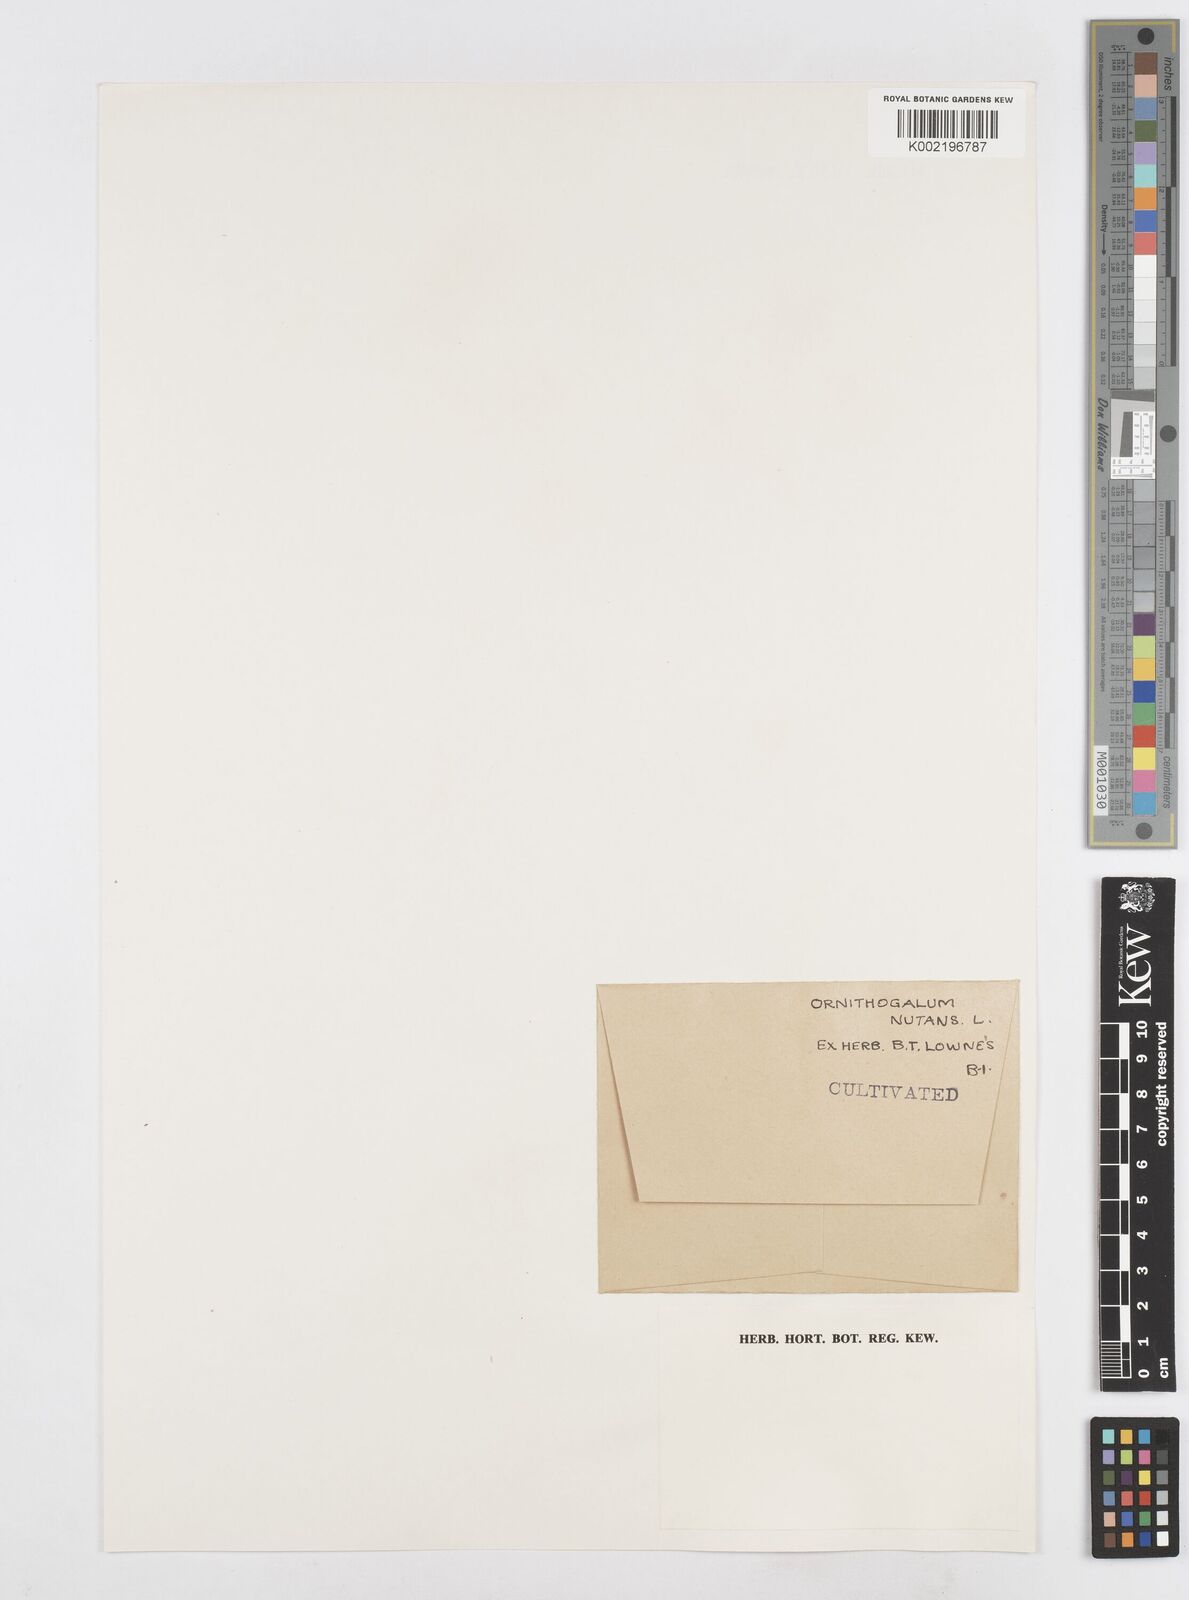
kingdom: Plantae
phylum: Tracheophyta
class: Liliopsida
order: Asparagales
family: Asparagaceae
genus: Ornithogalum
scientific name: Ornithogalum nutans
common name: Drooping star-of-bethlehem
